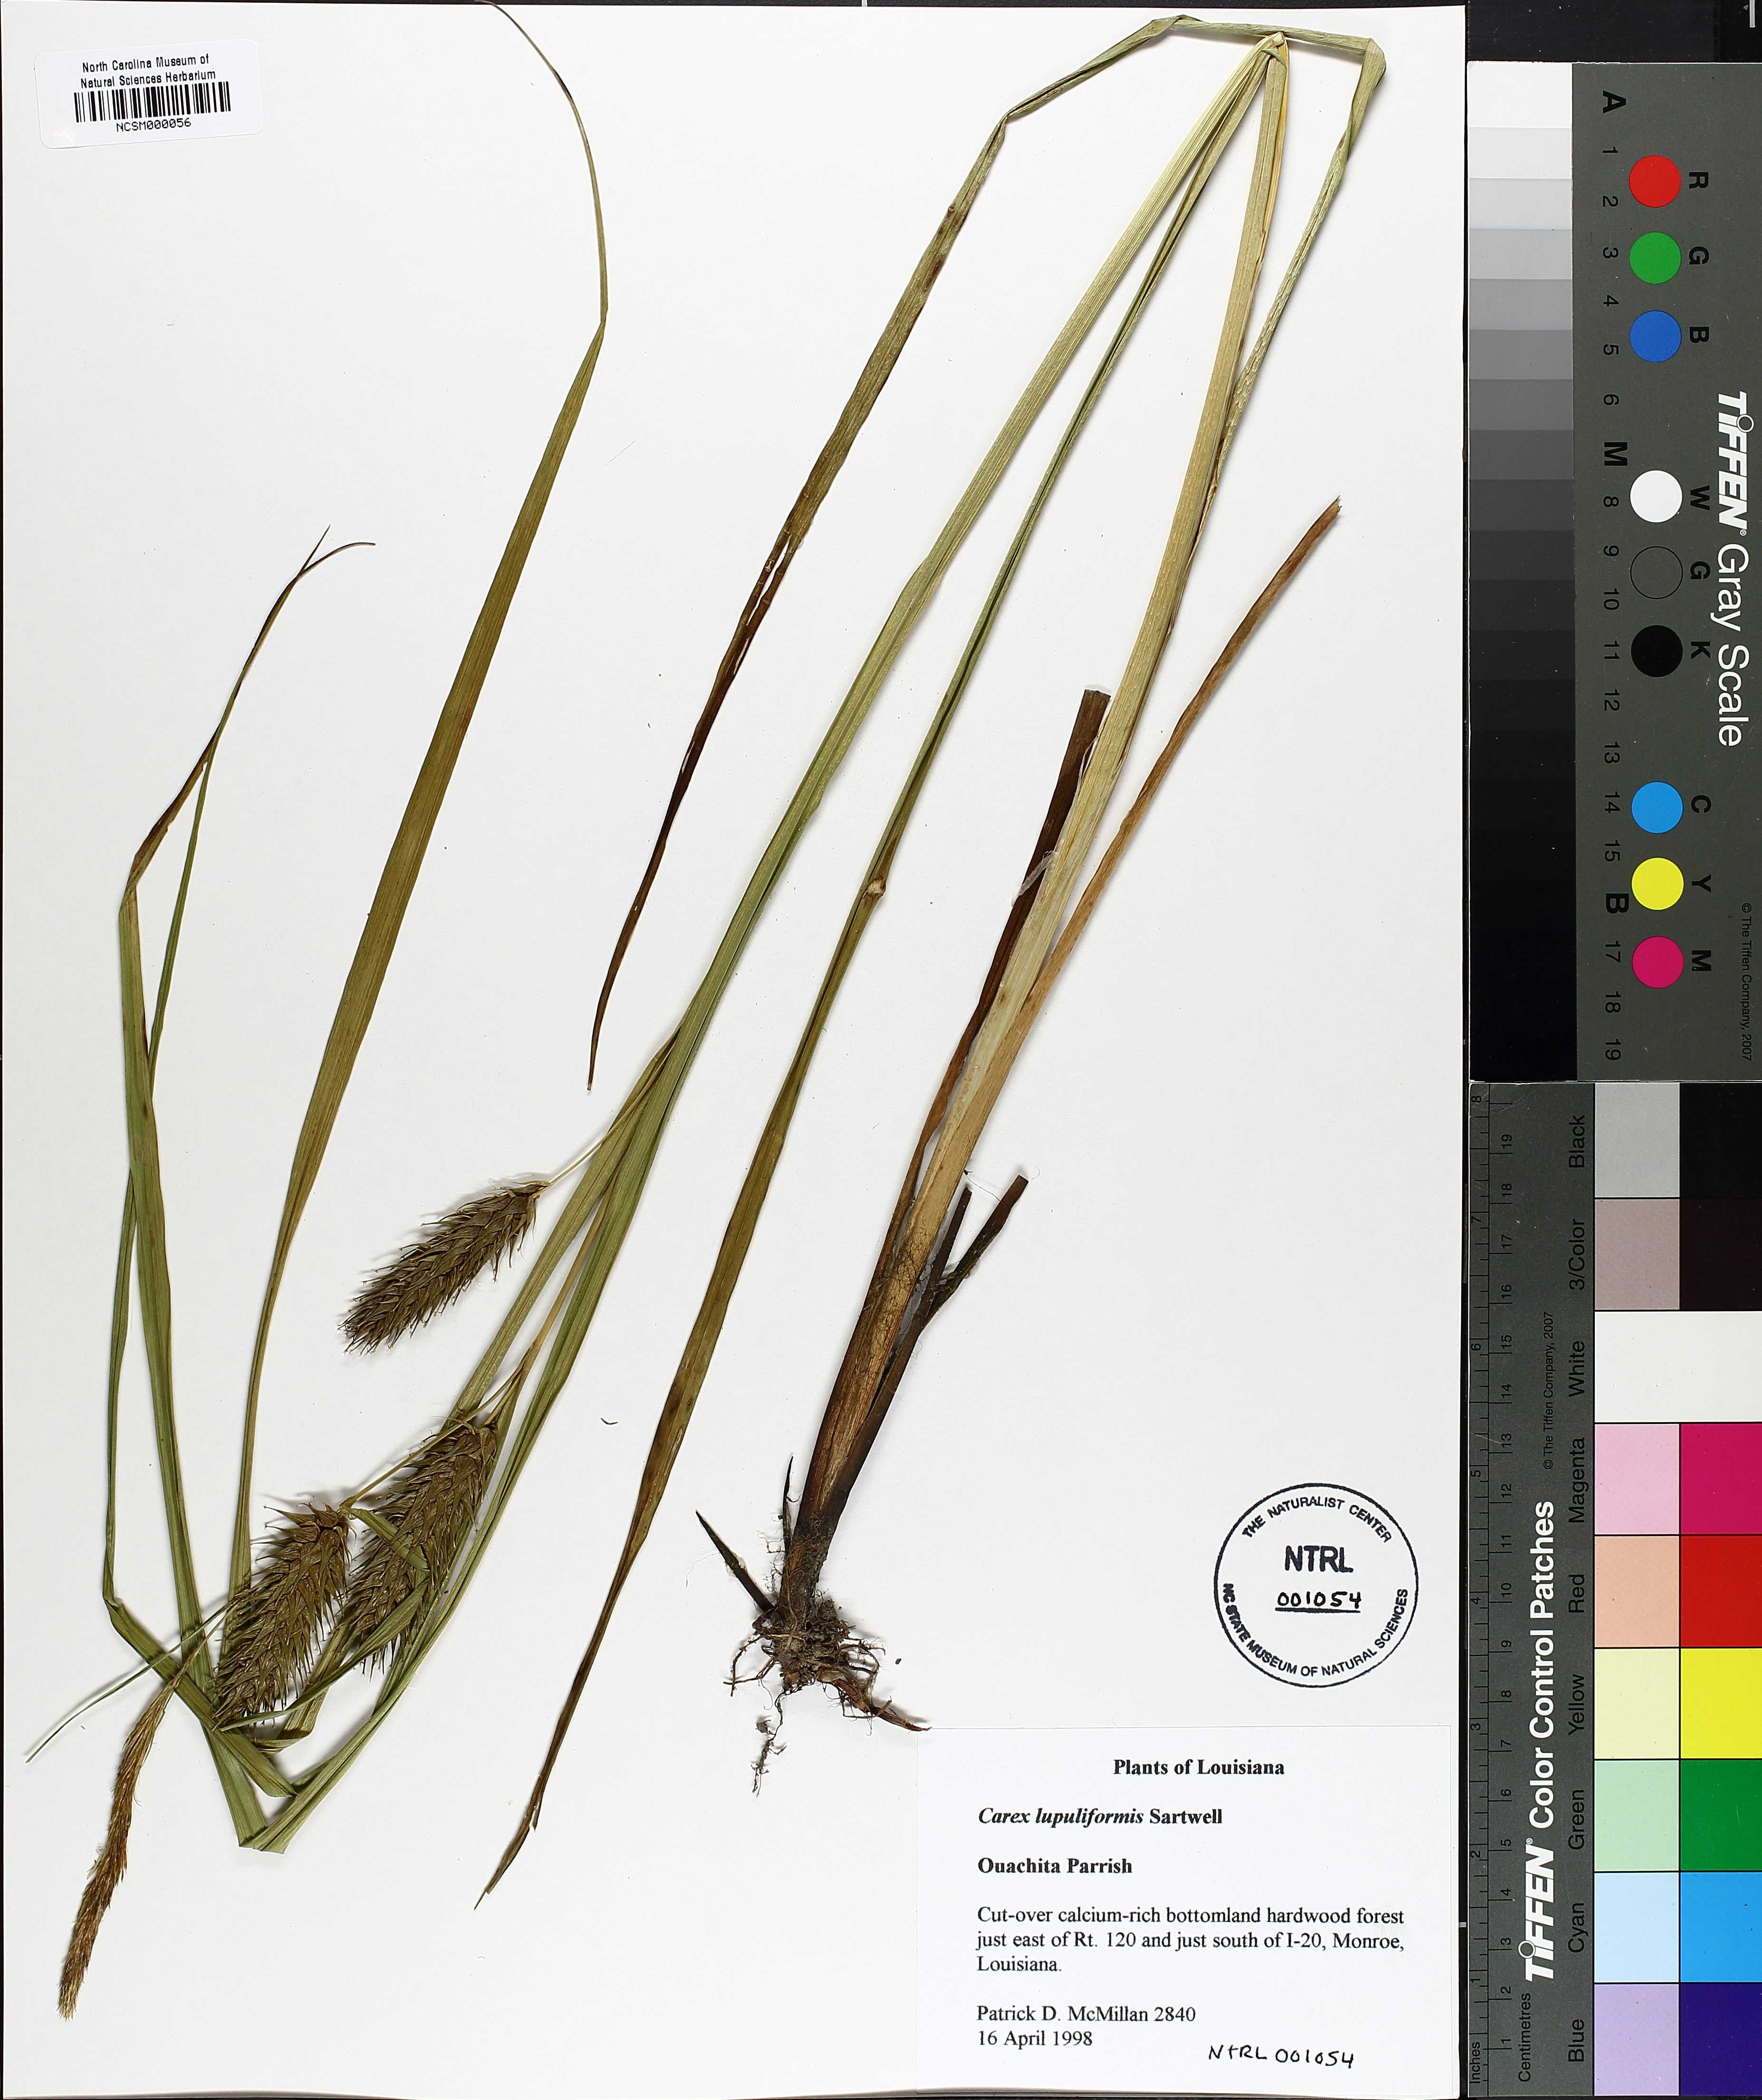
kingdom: Plantae
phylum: Tracheophyta
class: Liliopsida
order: Poales
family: Cyperaceae
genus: Carex
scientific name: Carex lupuliformis
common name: False hop sedge
